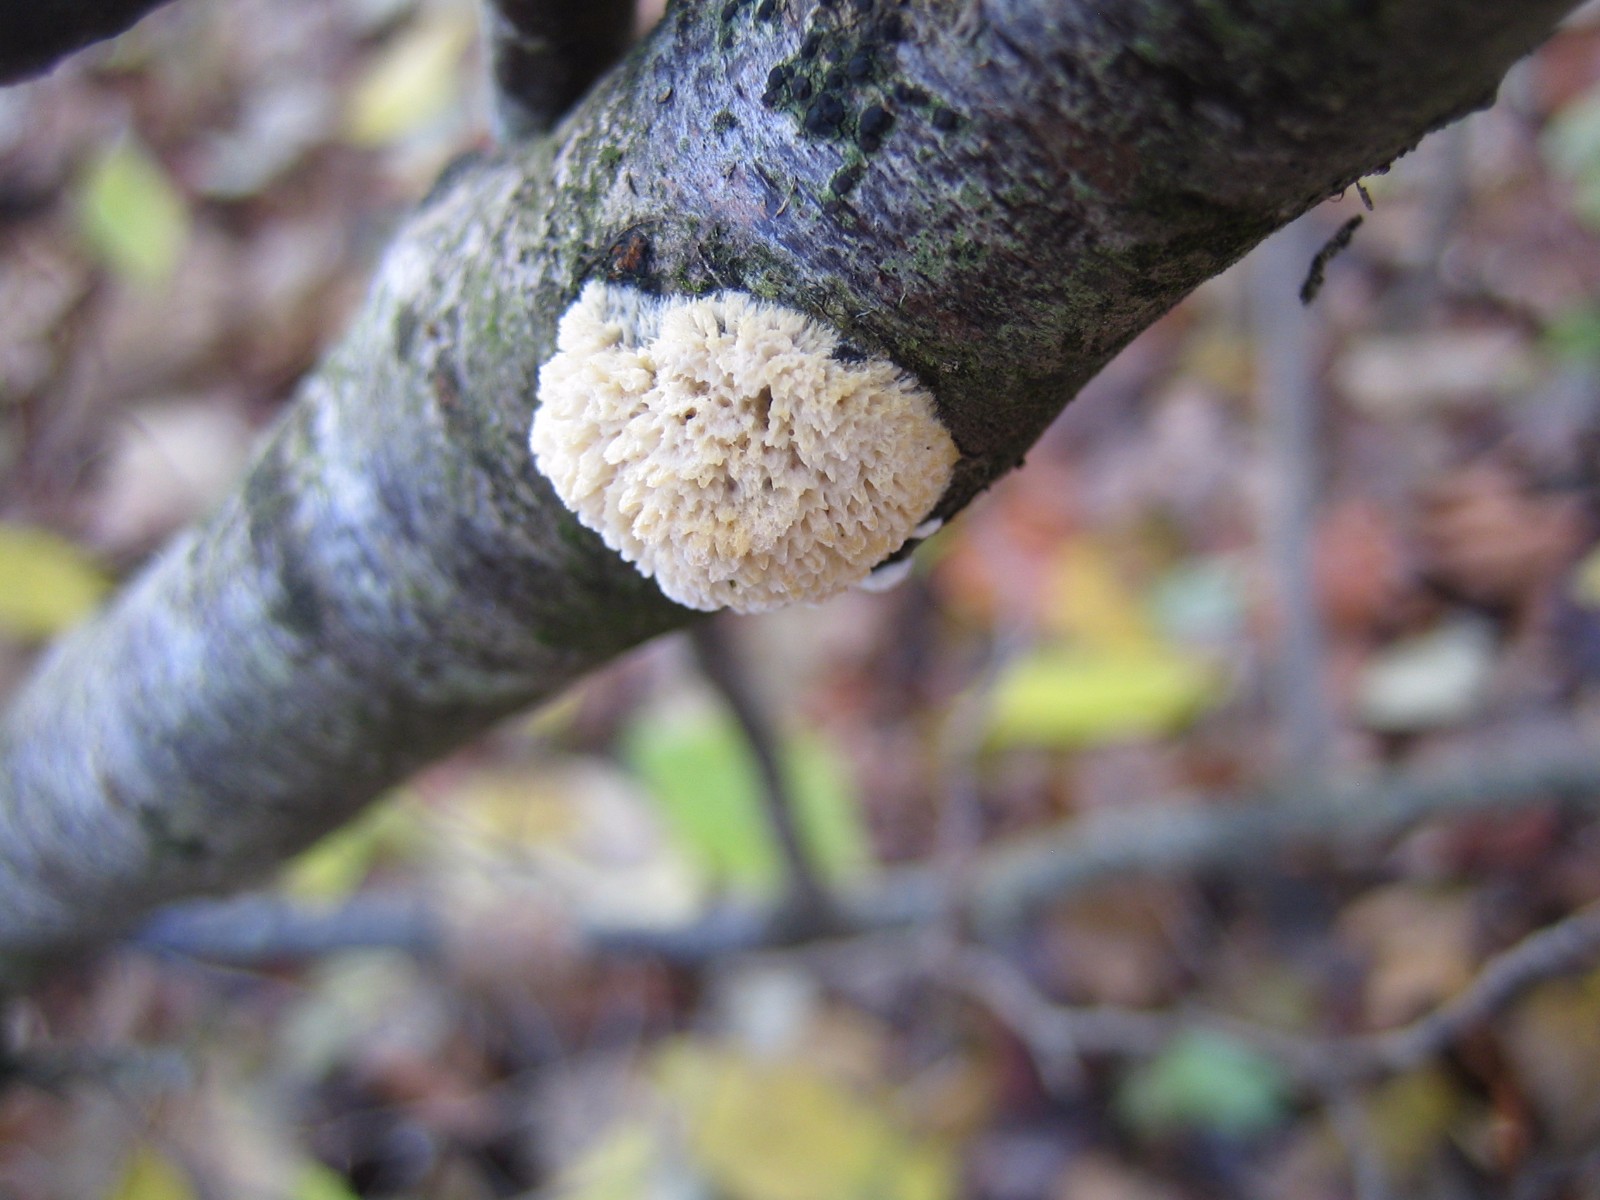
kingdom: Fungi
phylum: Basidiomycota
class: Agaricomycetes
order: Hymenochaetales
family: Schizoporaceae
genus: Xylodon
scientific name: Xylodon radula
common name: grovtandet kalkskind
